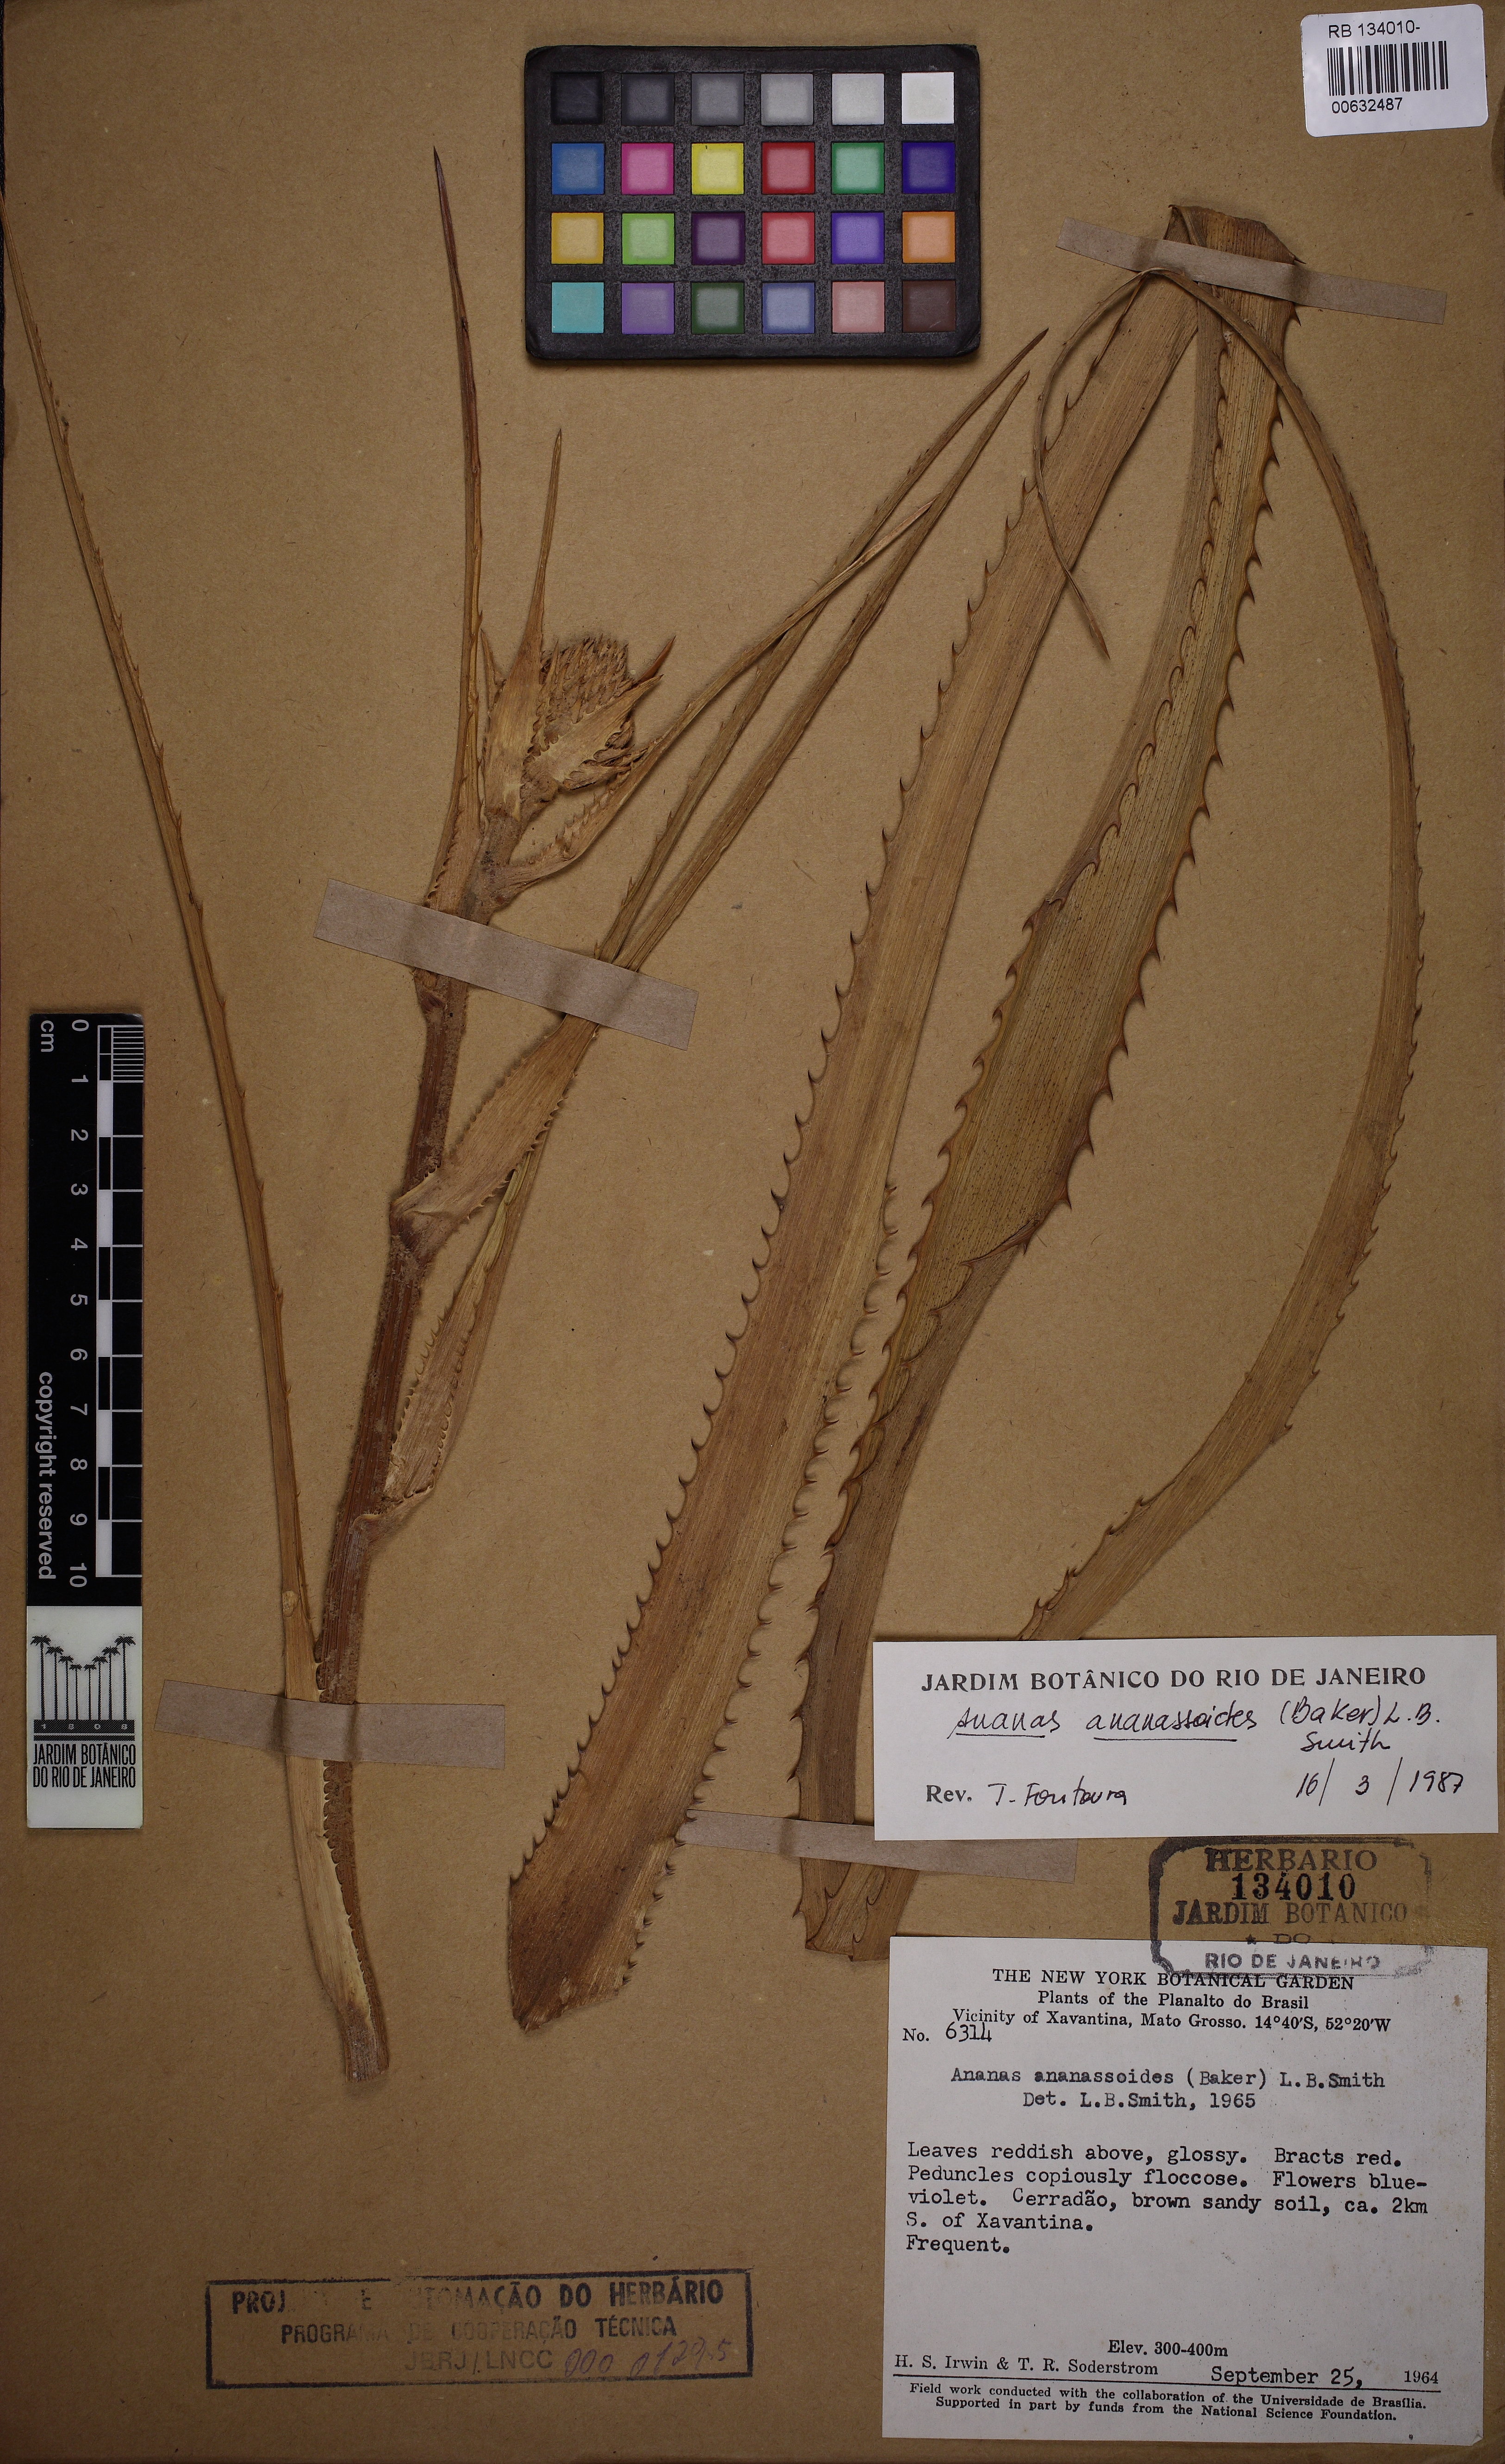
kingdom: Plantae
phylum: Tracheophyta
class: Liliopsida
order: Poales
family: Bromeliaceae
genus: Ananas
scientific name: Ananas comosus
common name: Pineapple
